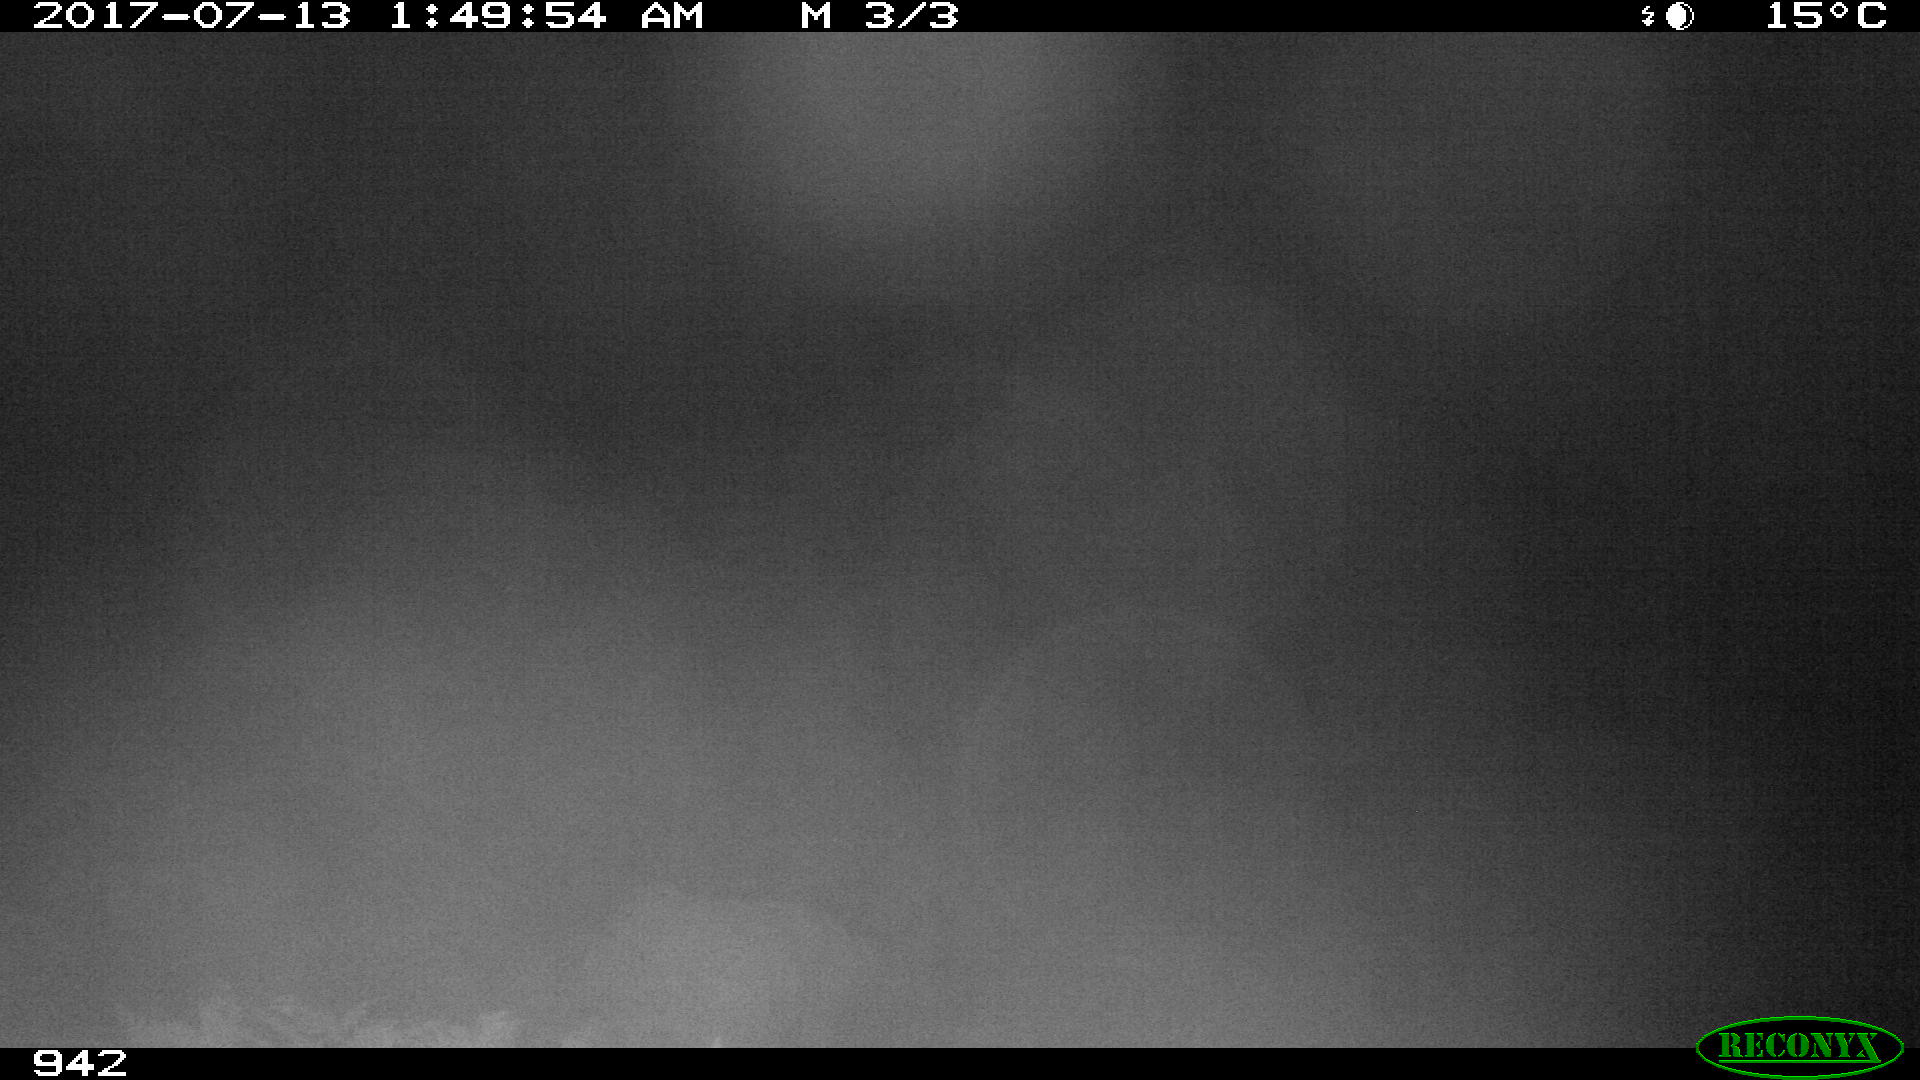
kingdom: Animalia
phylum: Chordata
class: Mammalia
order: Artiodactyla
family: Bovidae
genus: Bos
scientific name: Bos taurus
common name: Domesticated cattle
